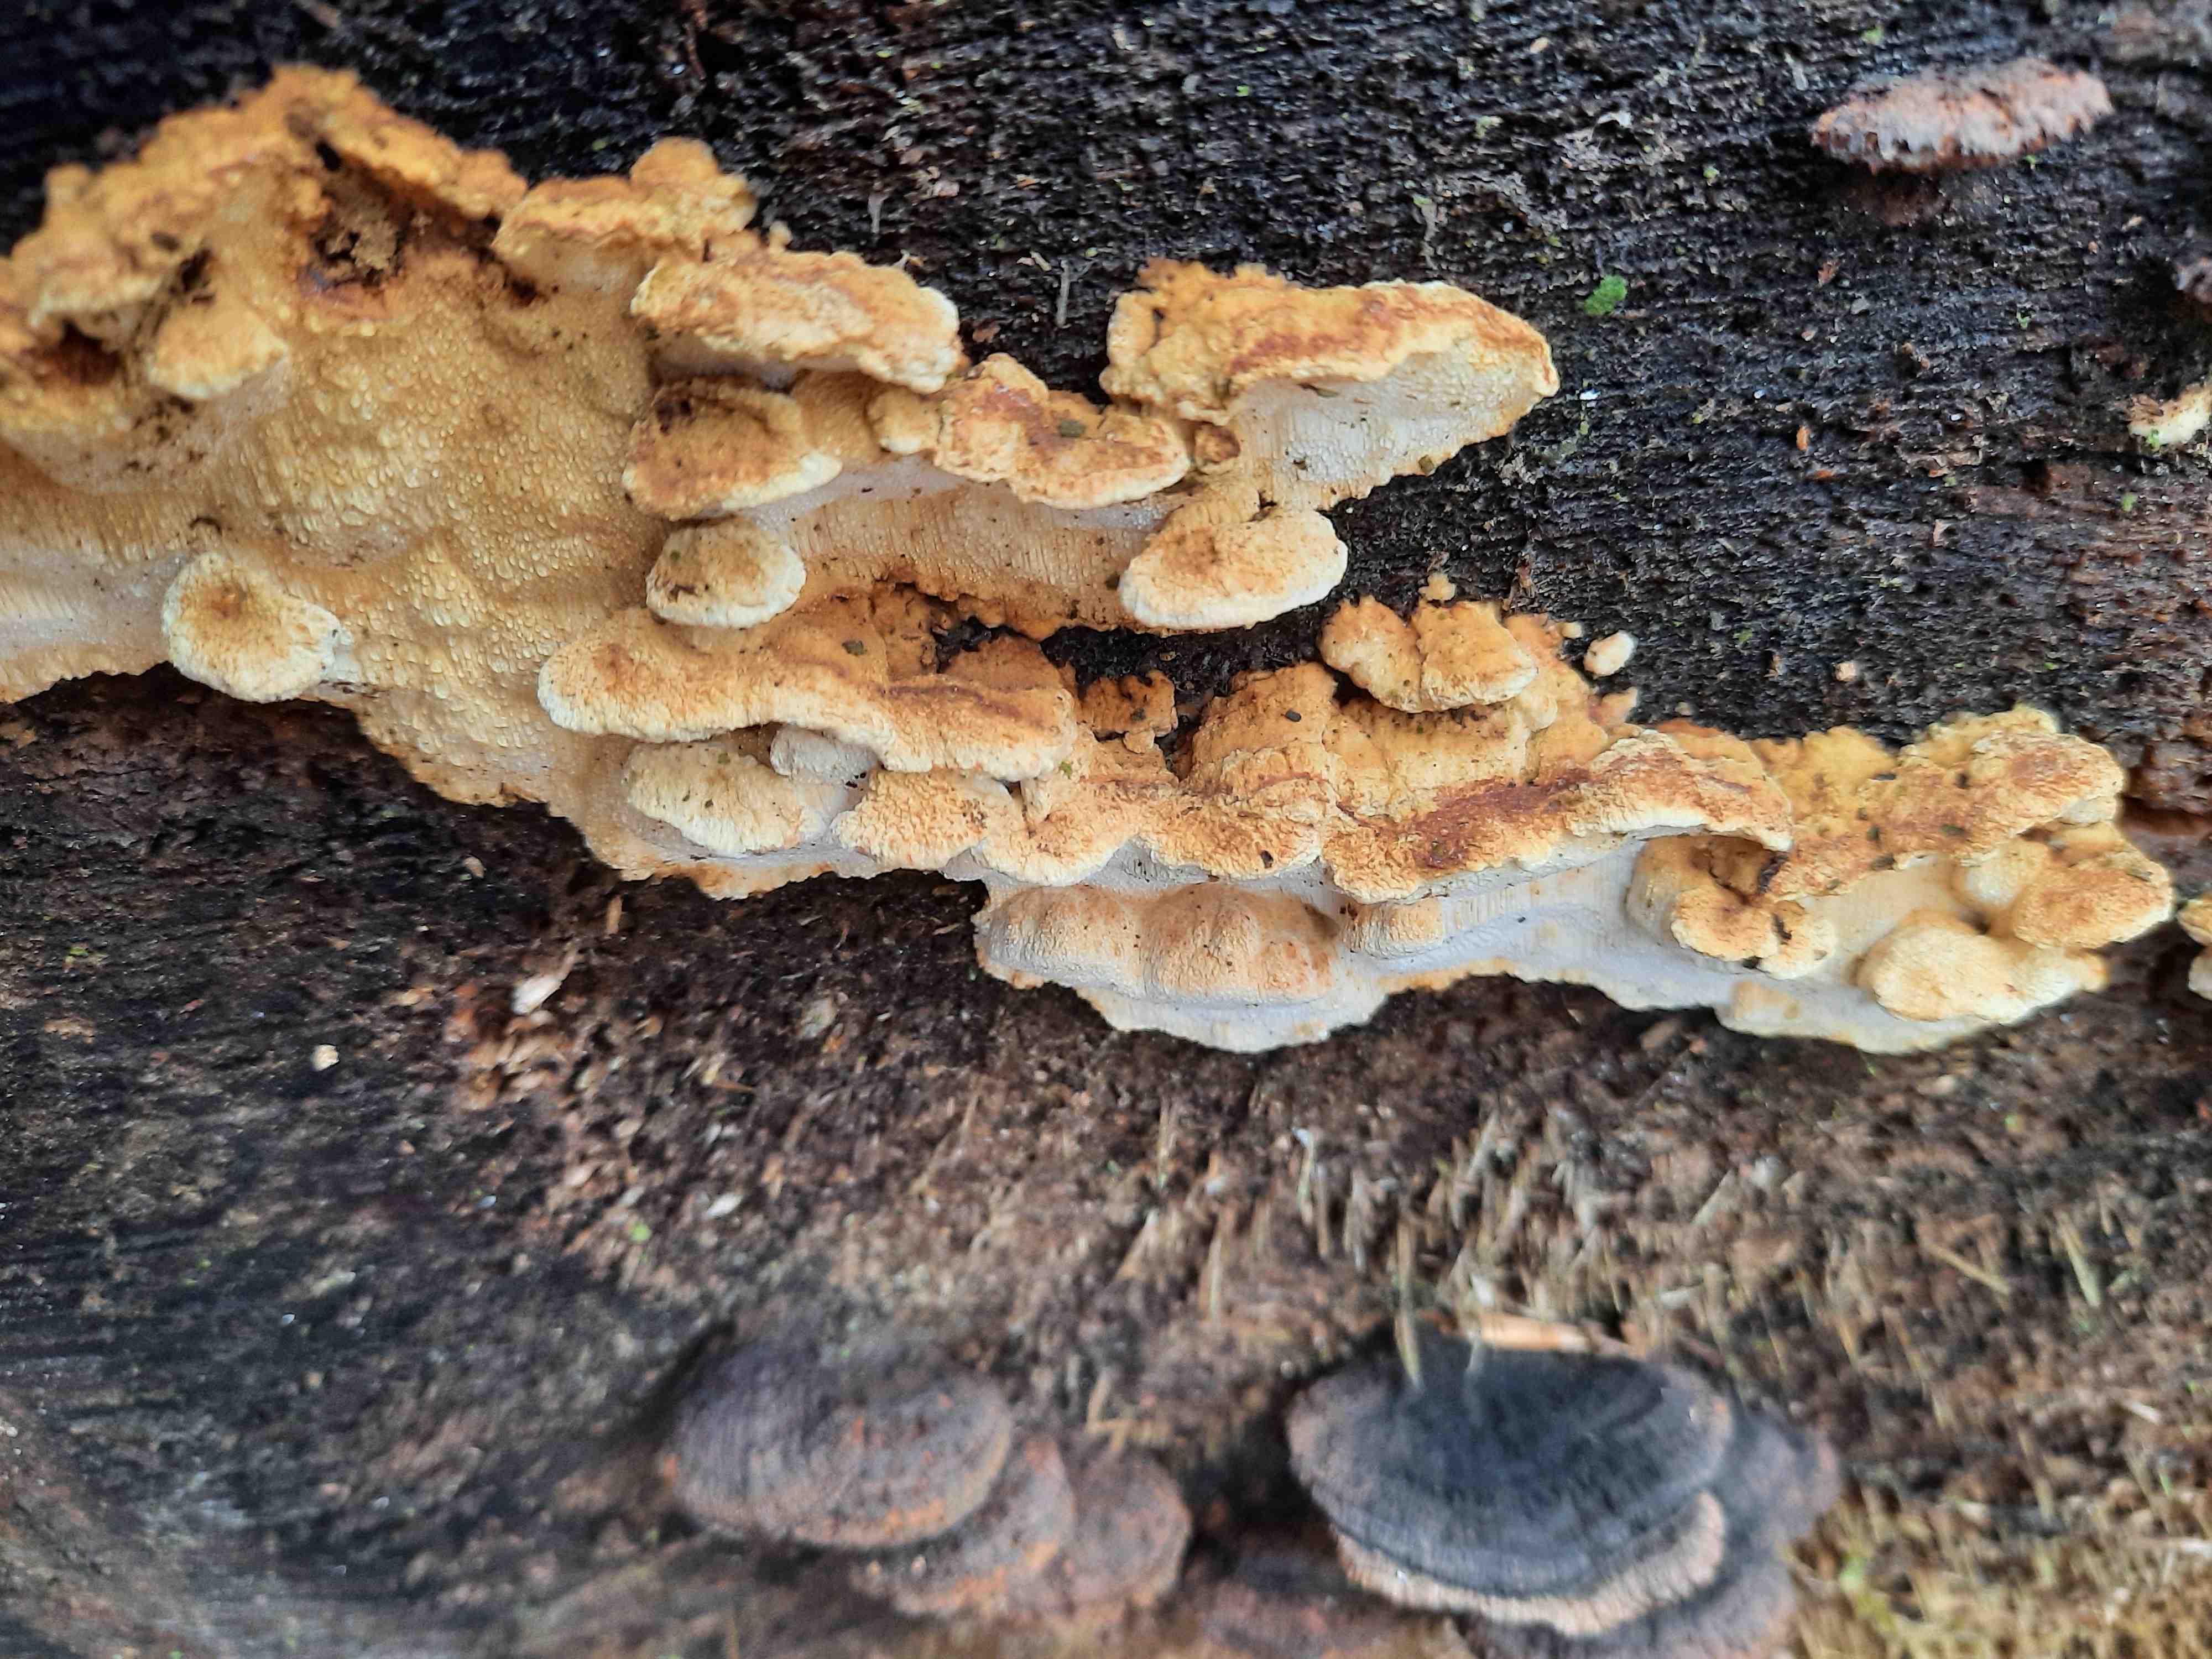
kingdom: Fungi
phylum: Basidiomycota
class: Agaricomycetes
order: Polyporales
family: Fomitopsidaceae
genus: Neoantrodia
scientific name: Neoantrodia serialis
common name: række-sejporesvamp
